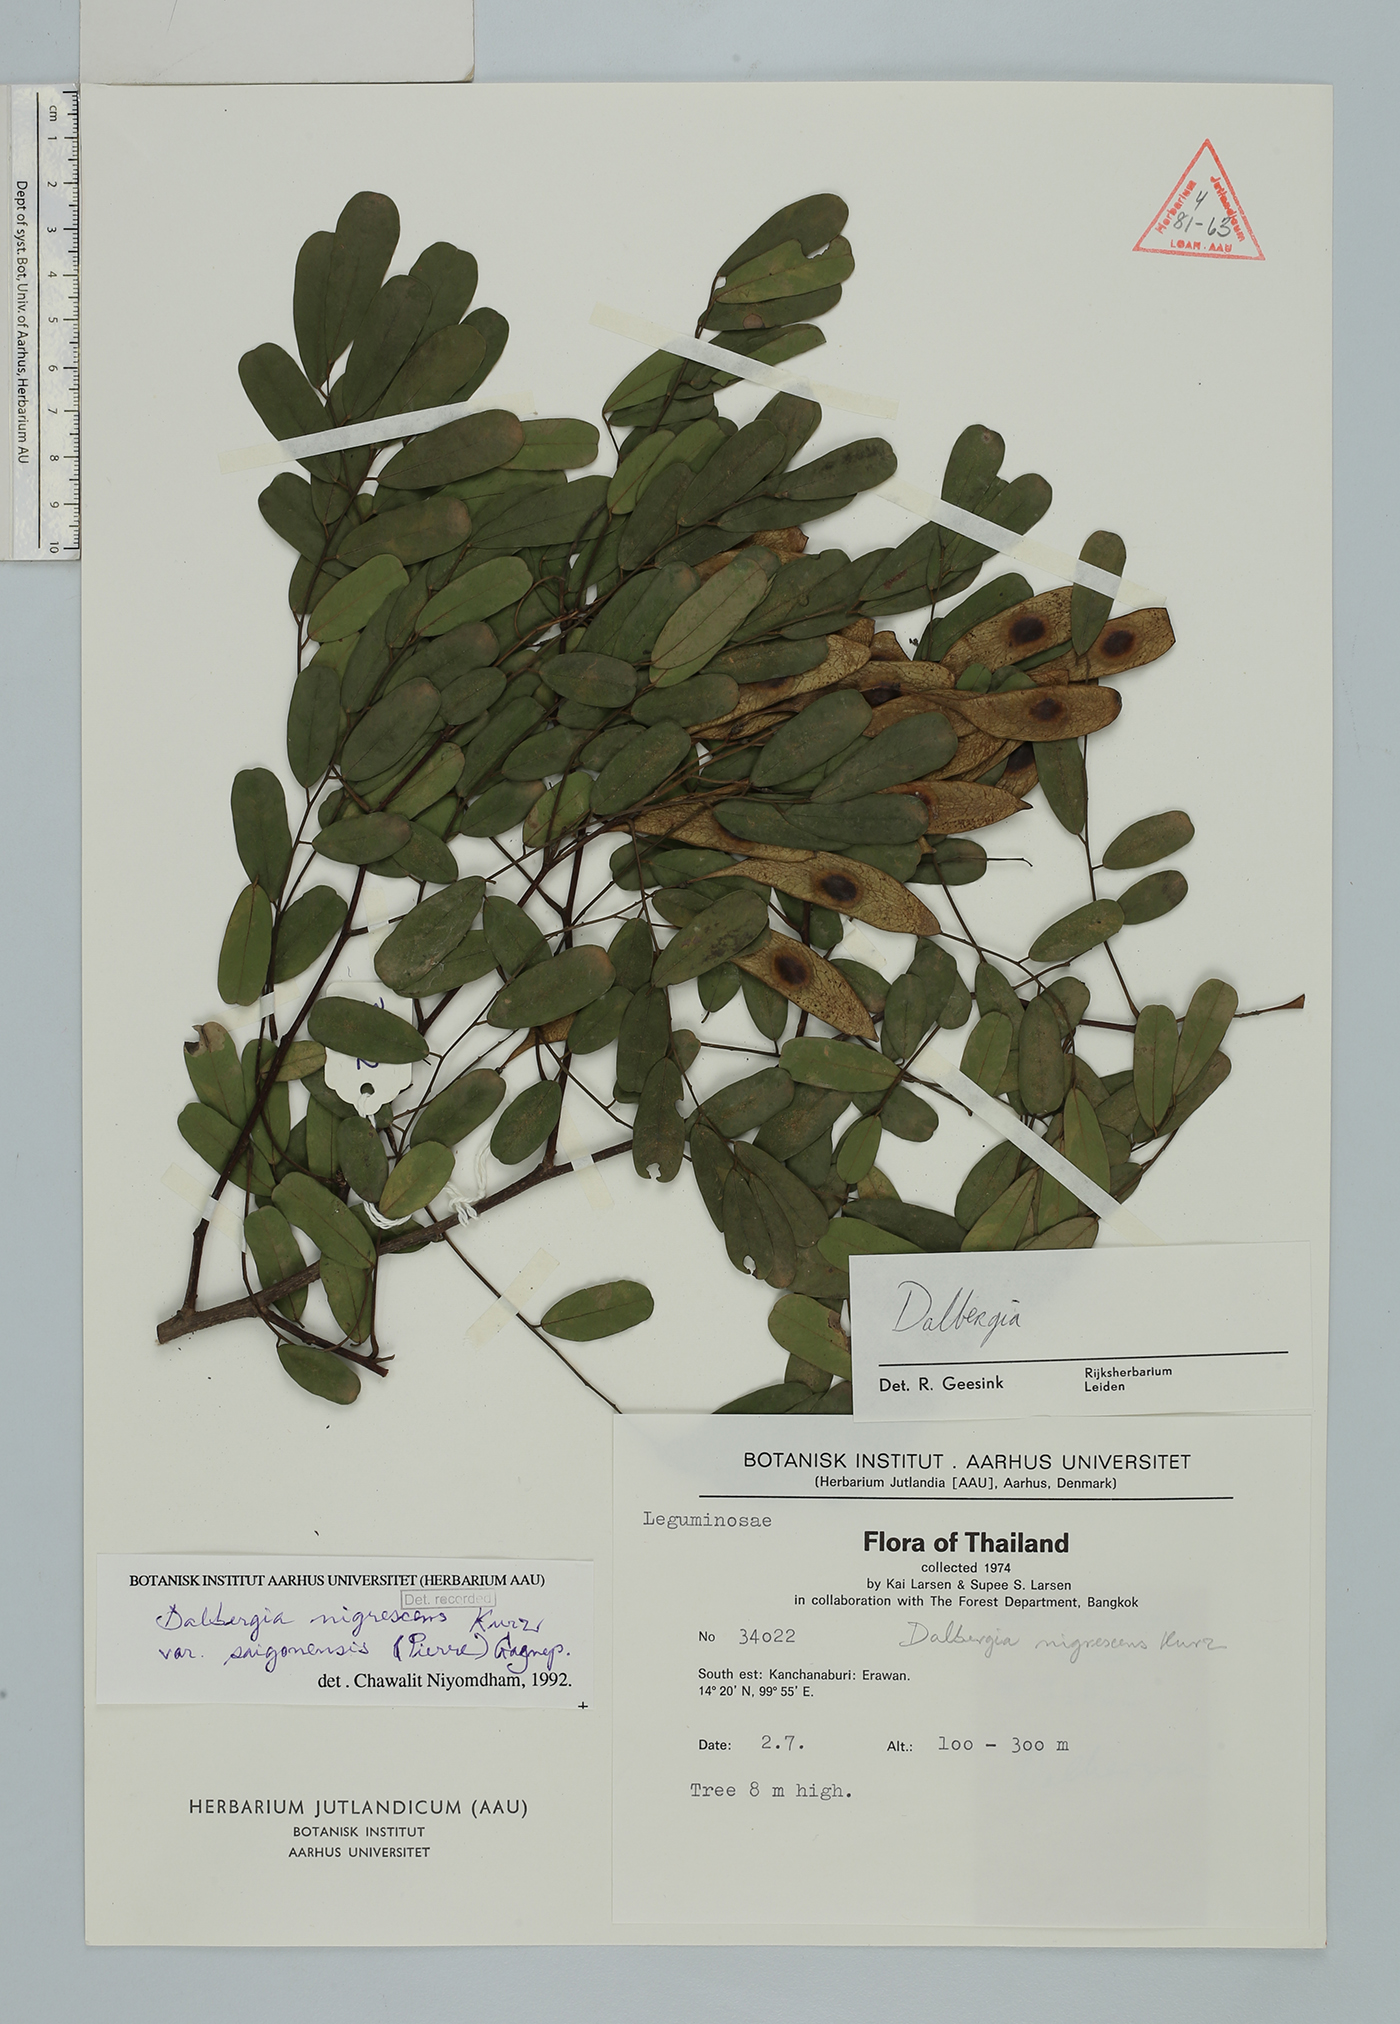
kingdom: Plantae
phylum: Tracheophyta
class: Magnoliopsida
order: Fabales
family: Fabaceae
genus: Dalbergia
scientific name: Dalbergia nigrescens
